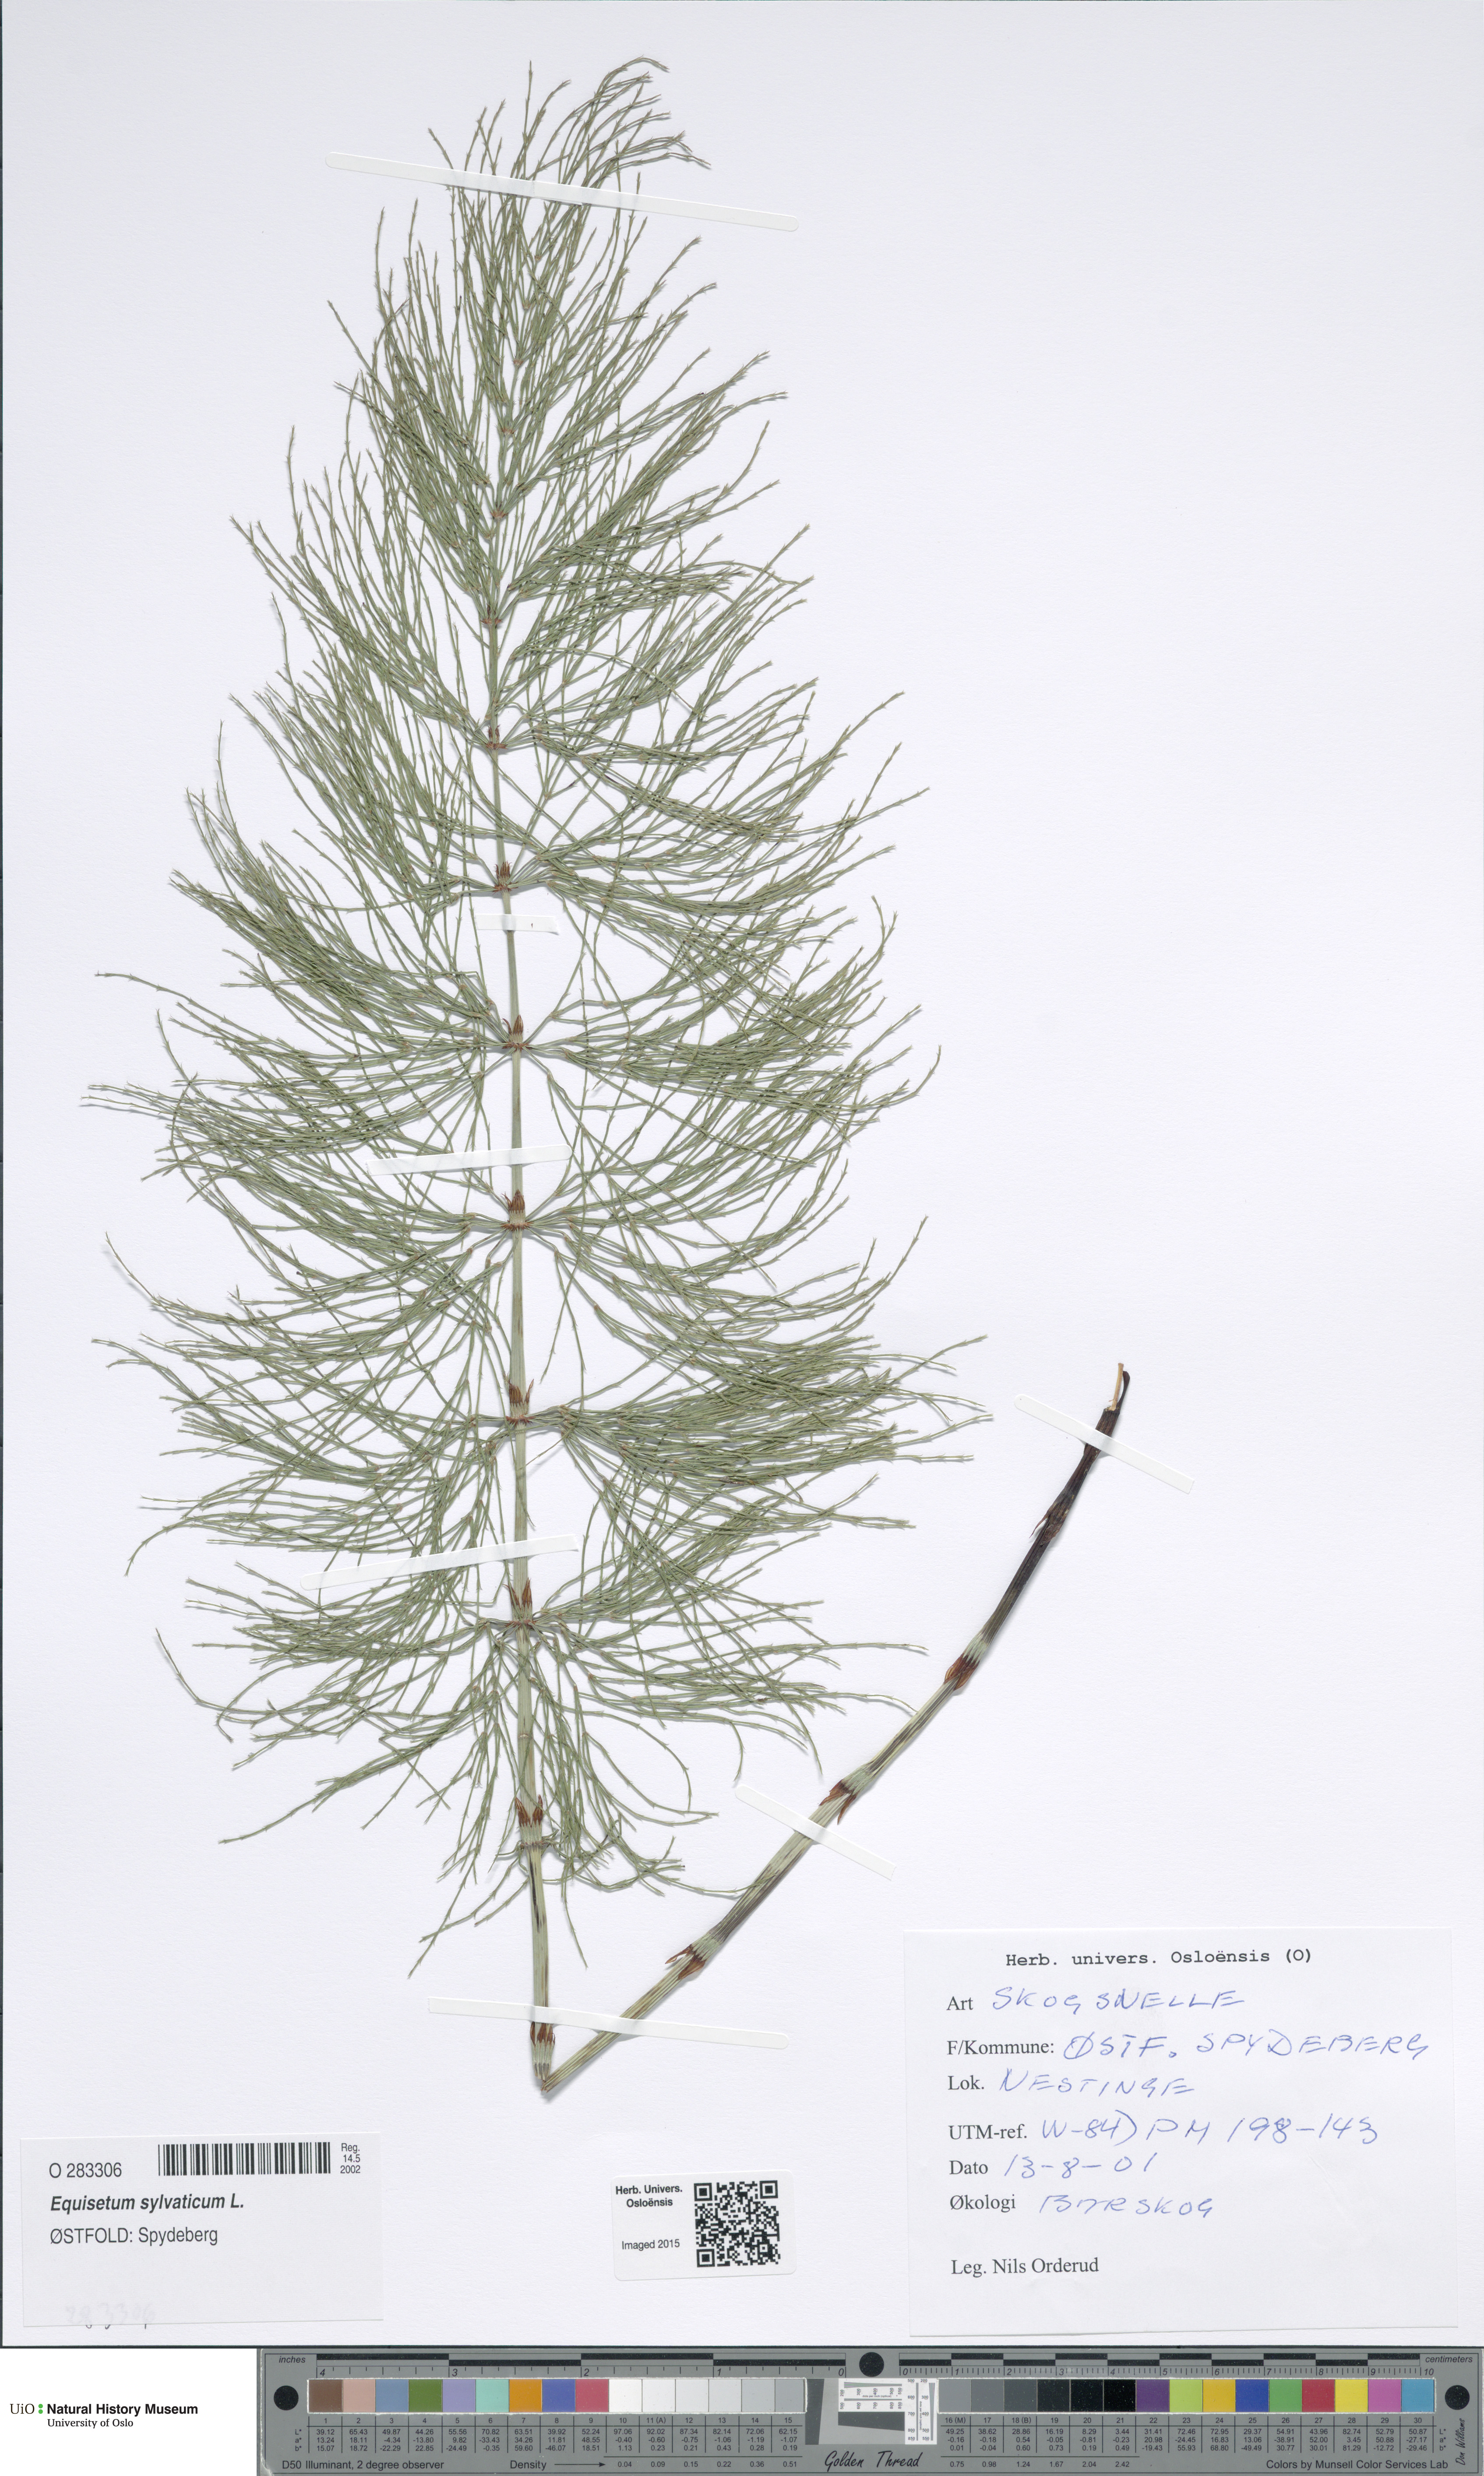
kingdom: Plantae
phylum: Tracheophyta
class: Polypodiopsida
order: Equisetales
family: Equisetaceae
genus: Equisetum
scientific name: Equisetum sylvaticum
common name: Wood horsetail
